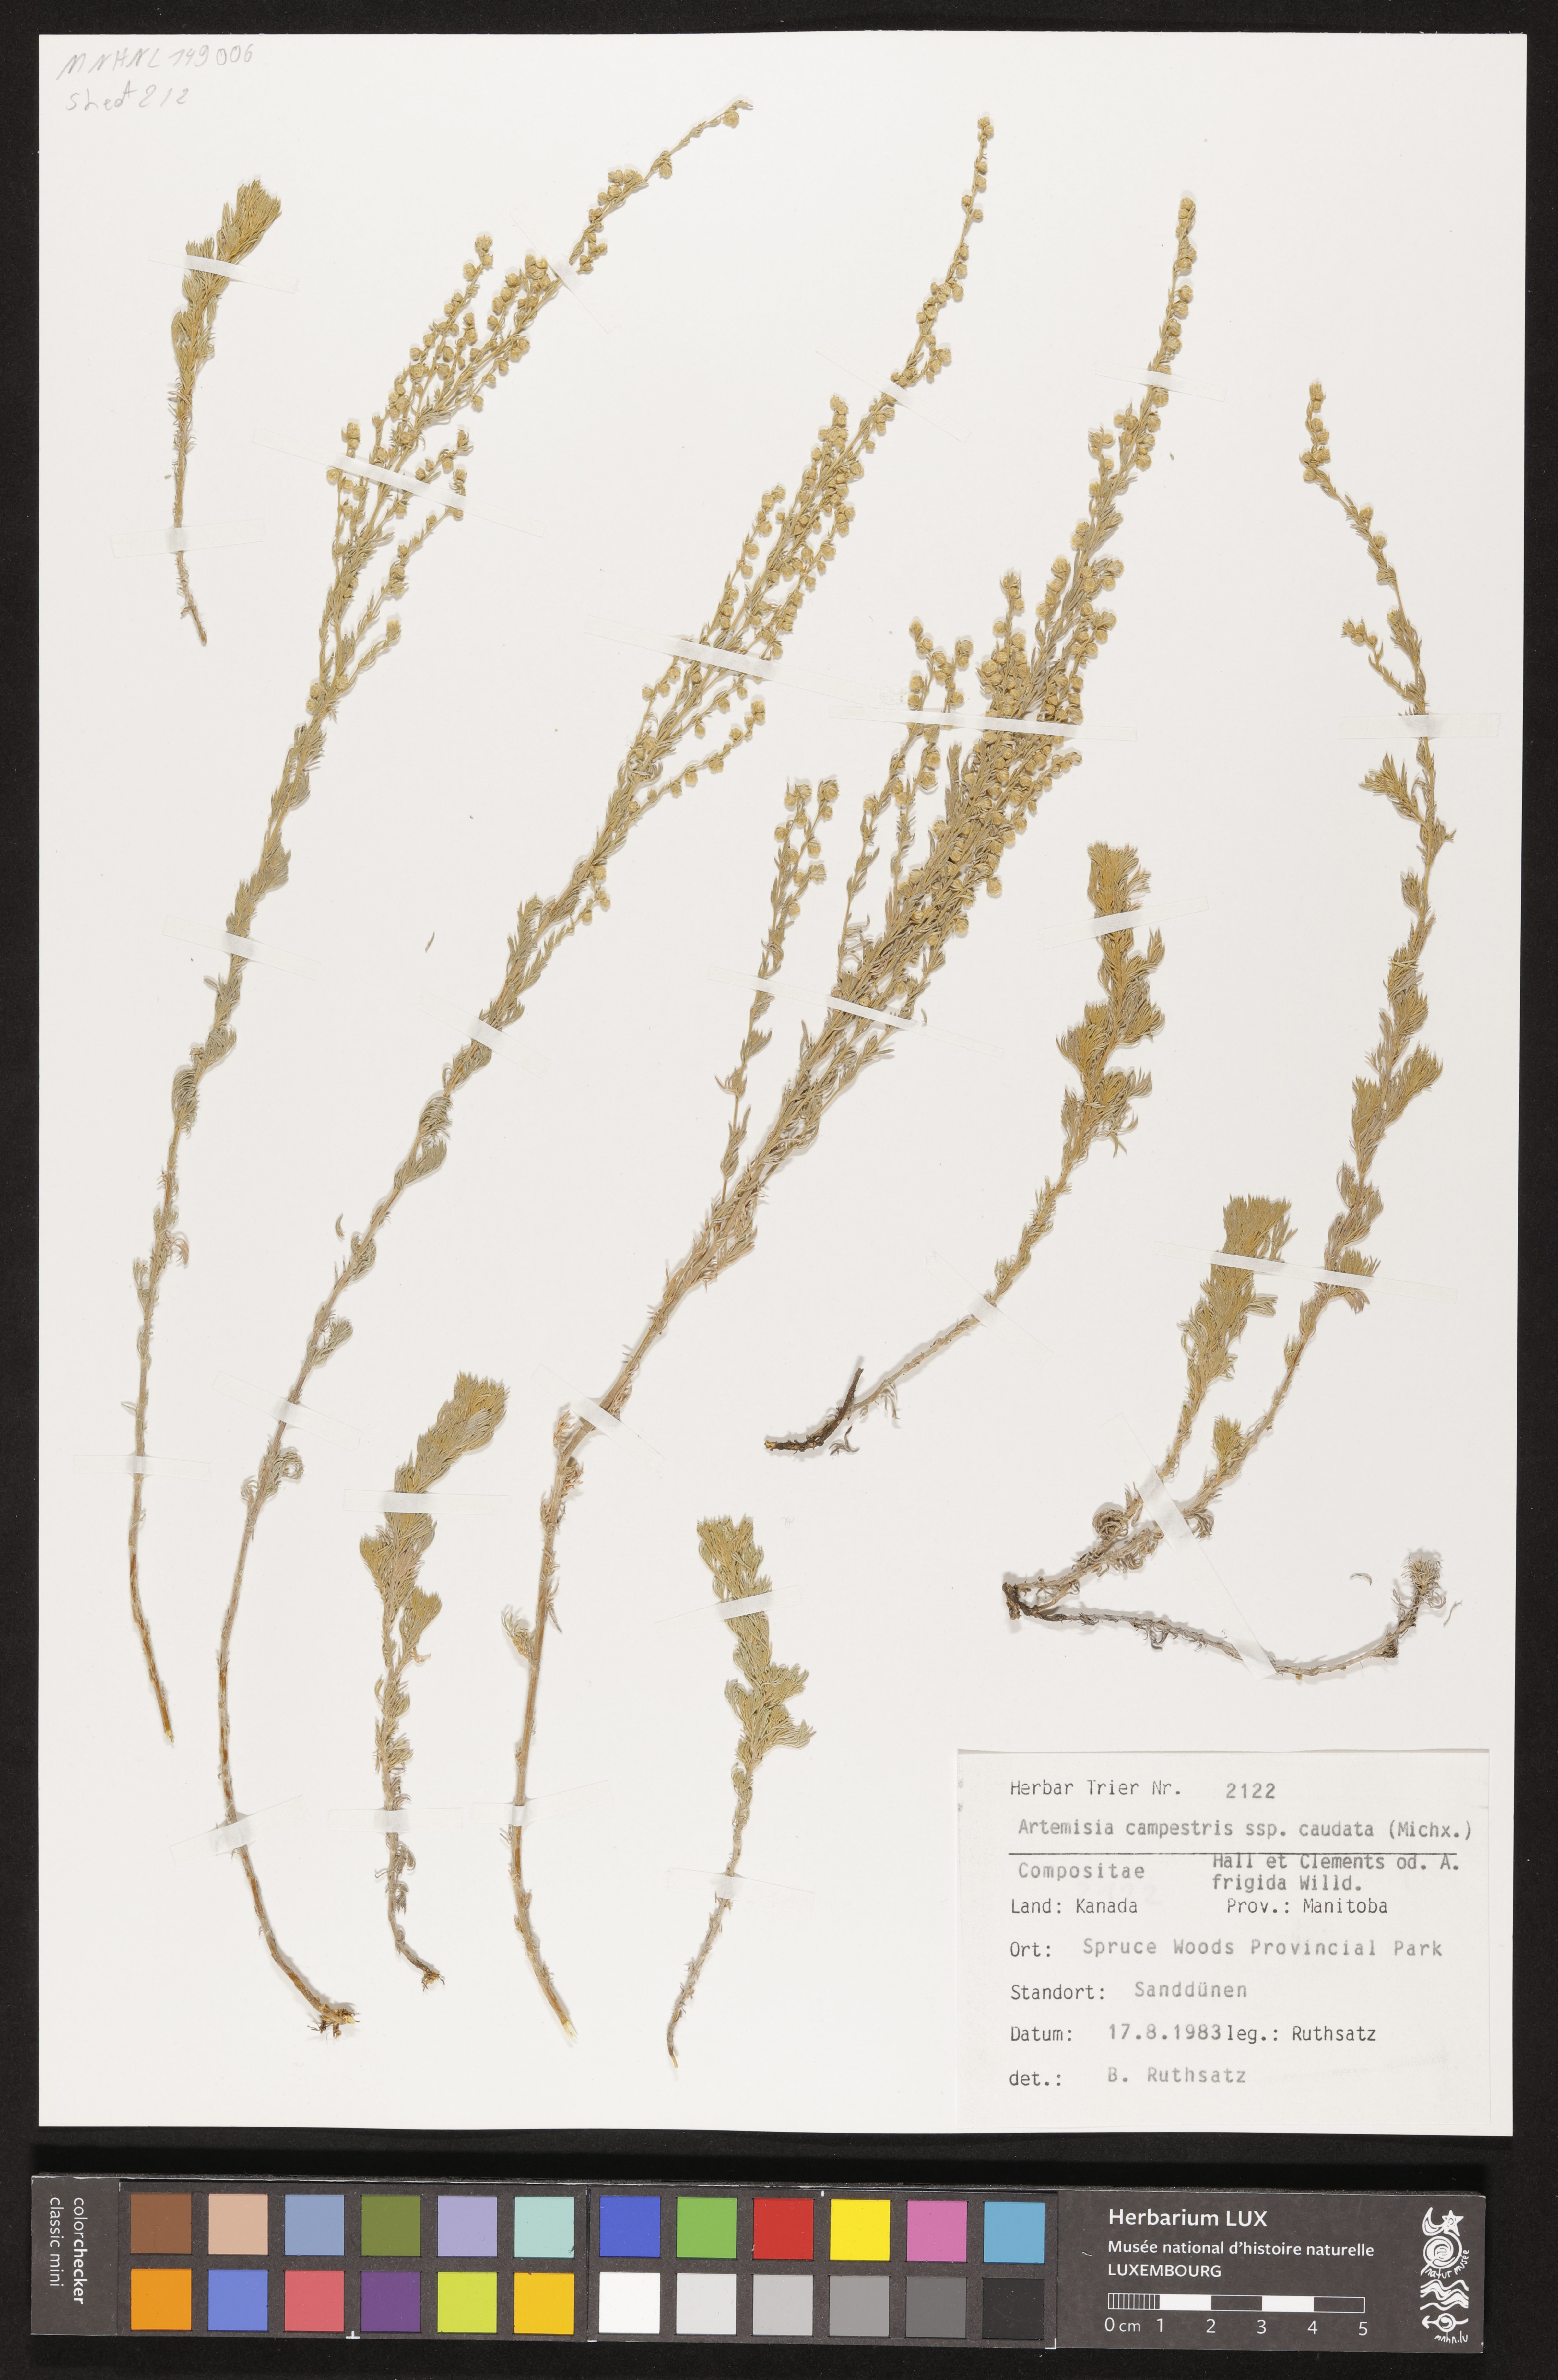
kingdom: Plantae
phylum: Tracheophyta
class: Magnoliopsida
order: Asterales
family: Asteraceae
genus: Artemisia
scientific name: Artemisia campestris
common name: Field wormwood
